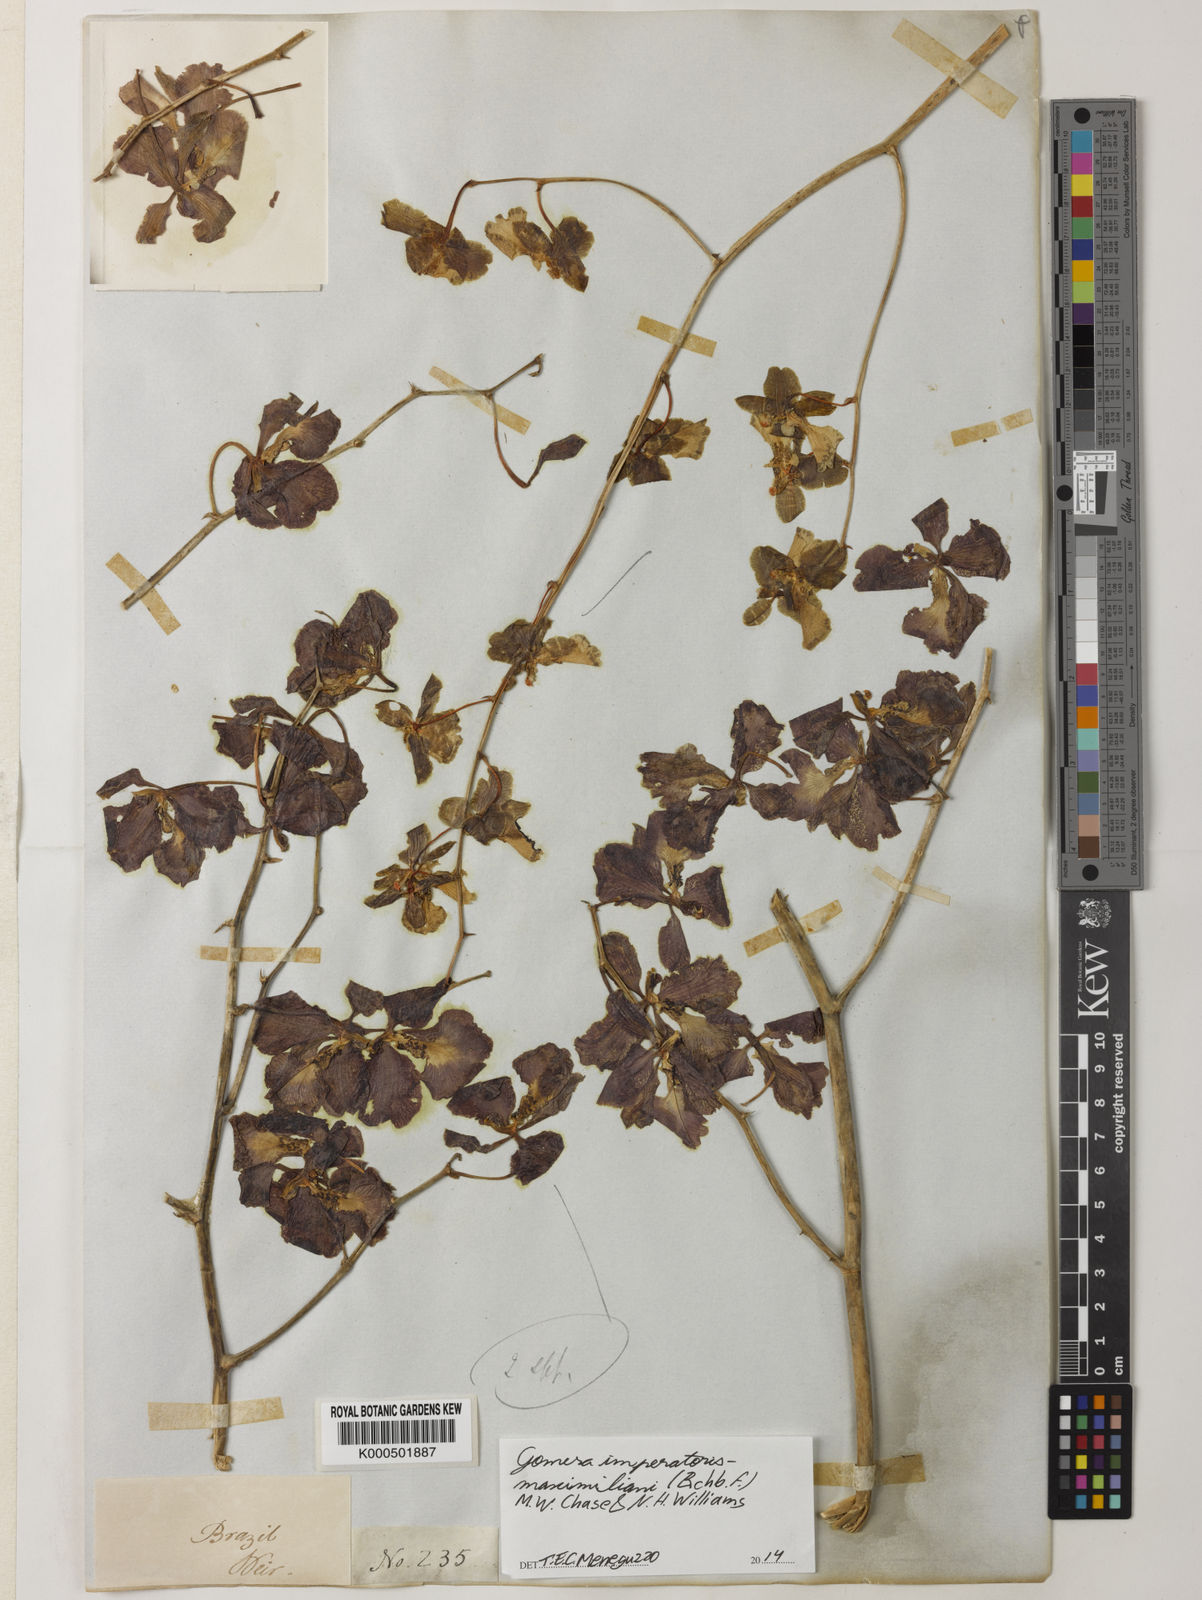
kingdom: Plantae
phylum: Tracheophyta
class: Liliopsida
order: Asparagales
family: Orchidaceae
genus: Gomesa
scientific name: Gomesa imperatoris-maximiliani
